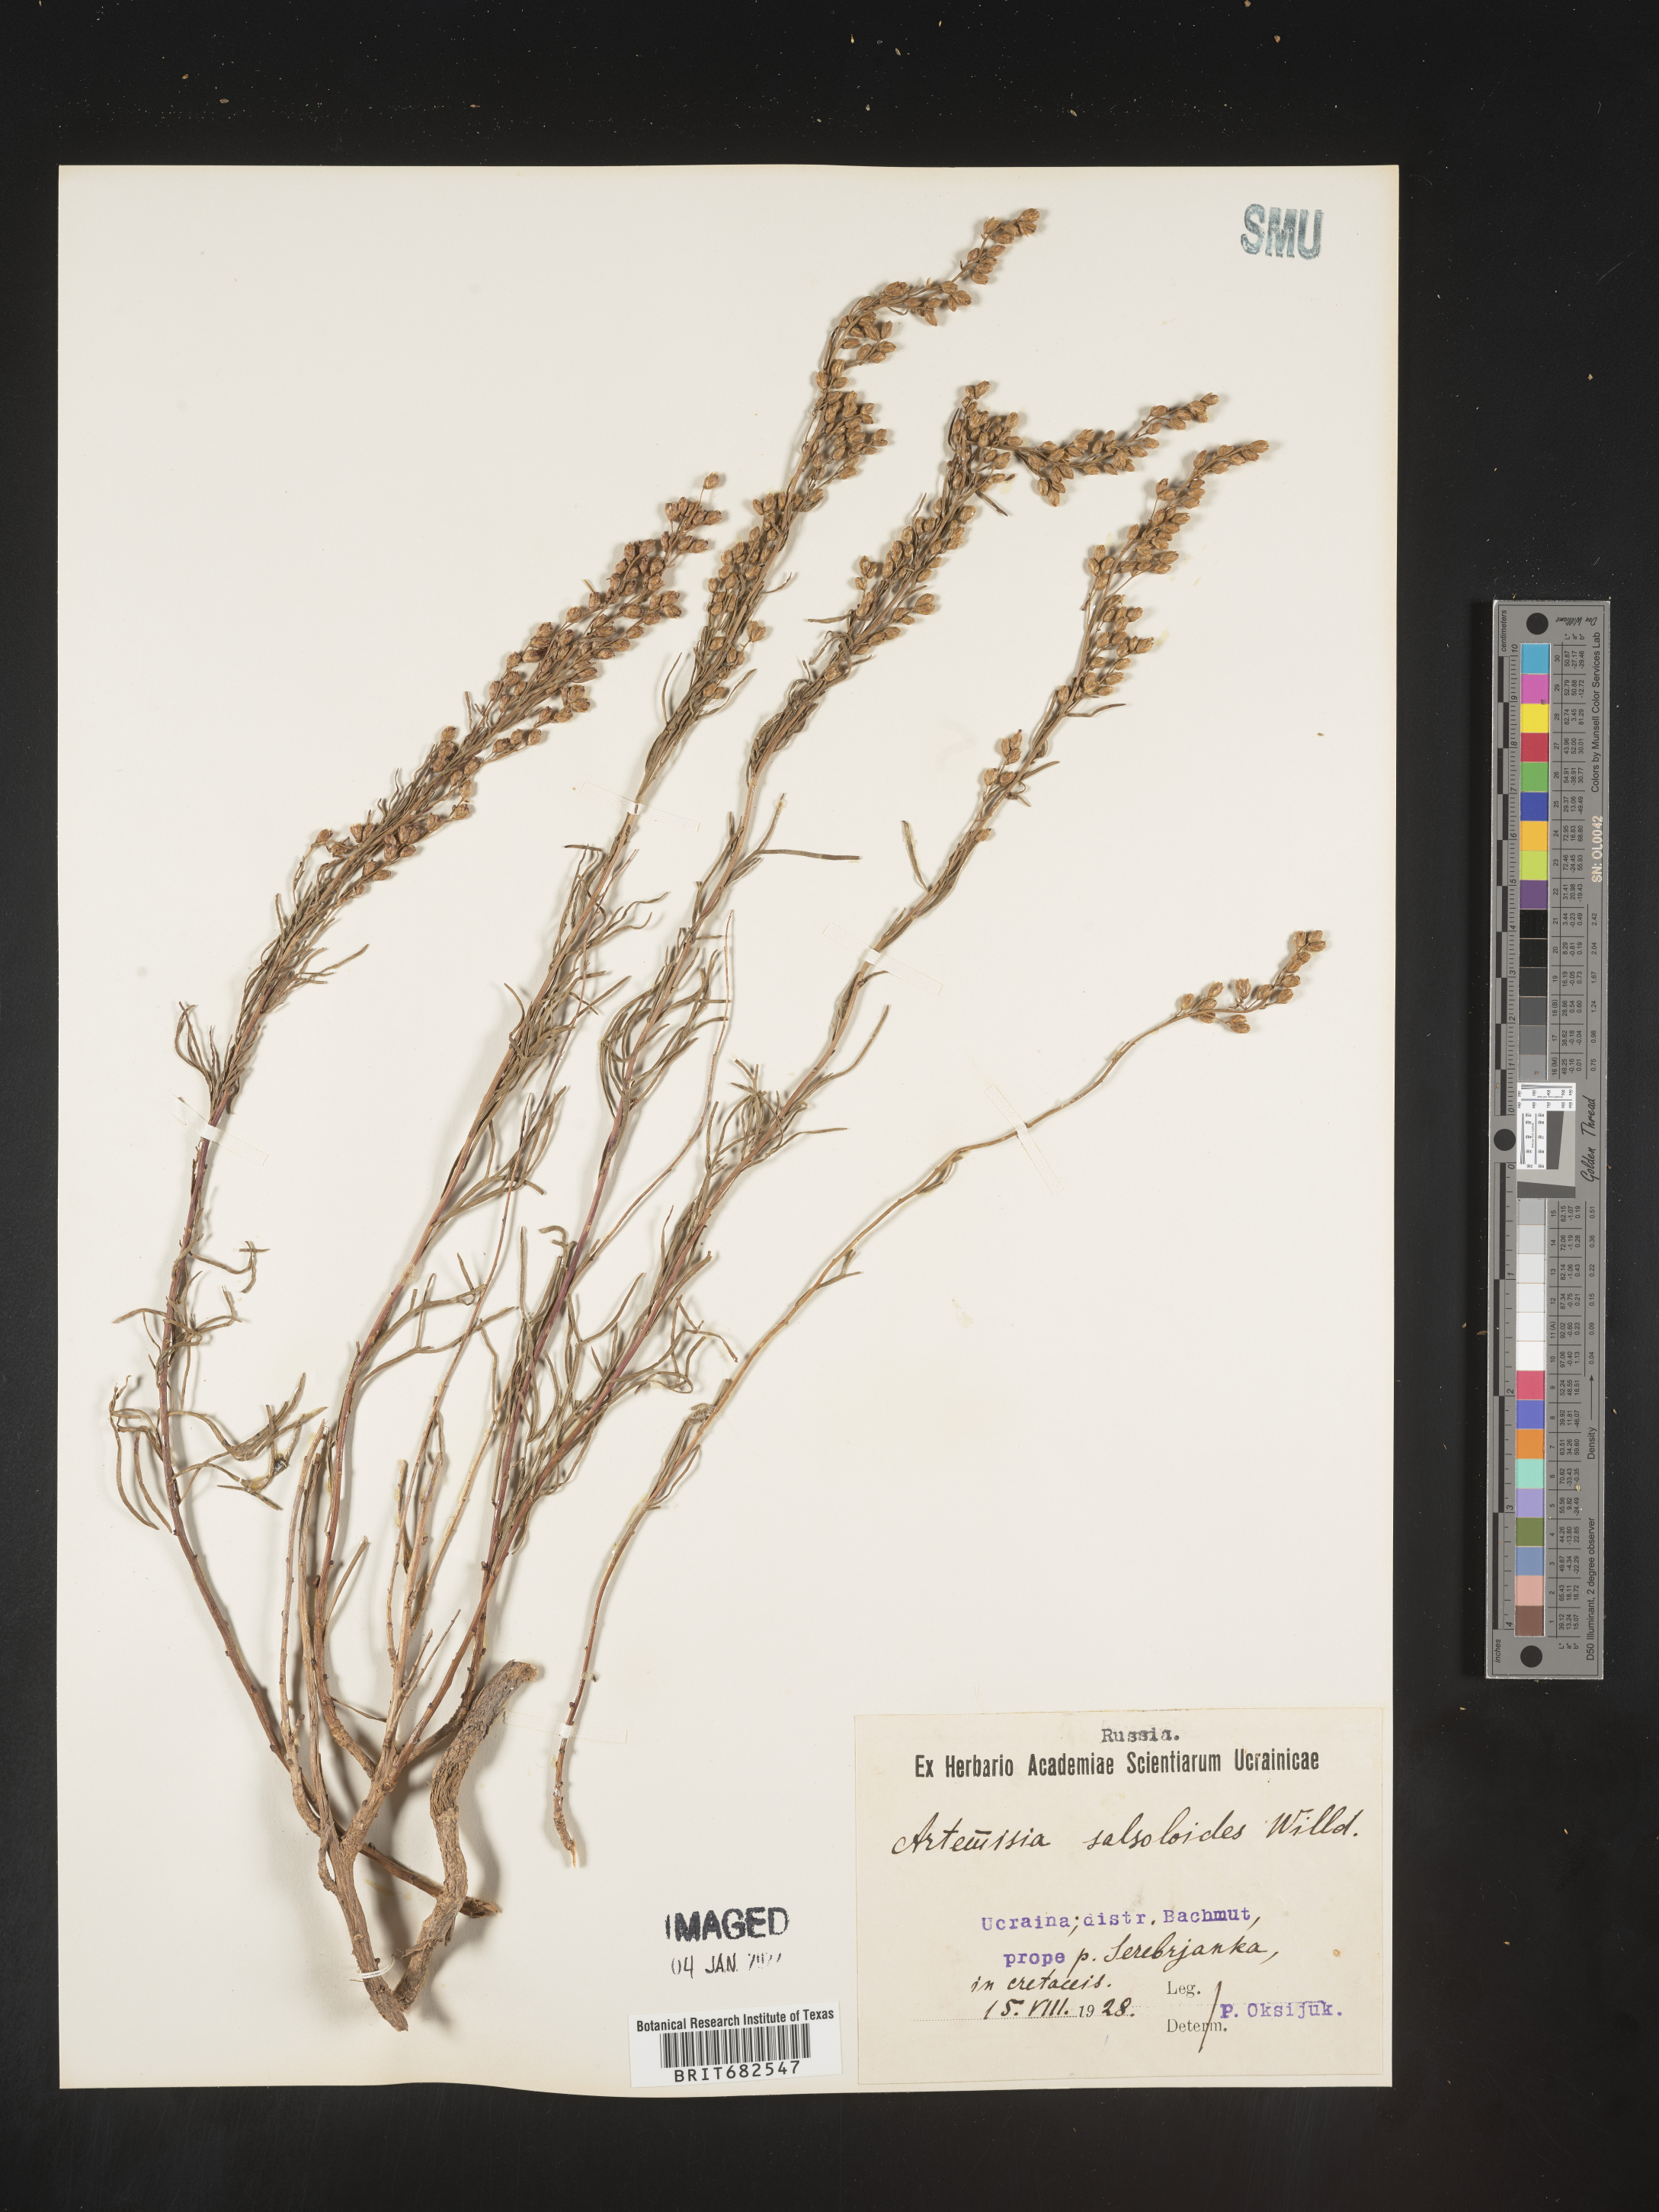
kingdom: Plantae
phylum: Tracheophyta
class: Magnoliopsida
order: Asterales
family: Asteraceae
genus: Artemisia
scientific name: Artemisia
